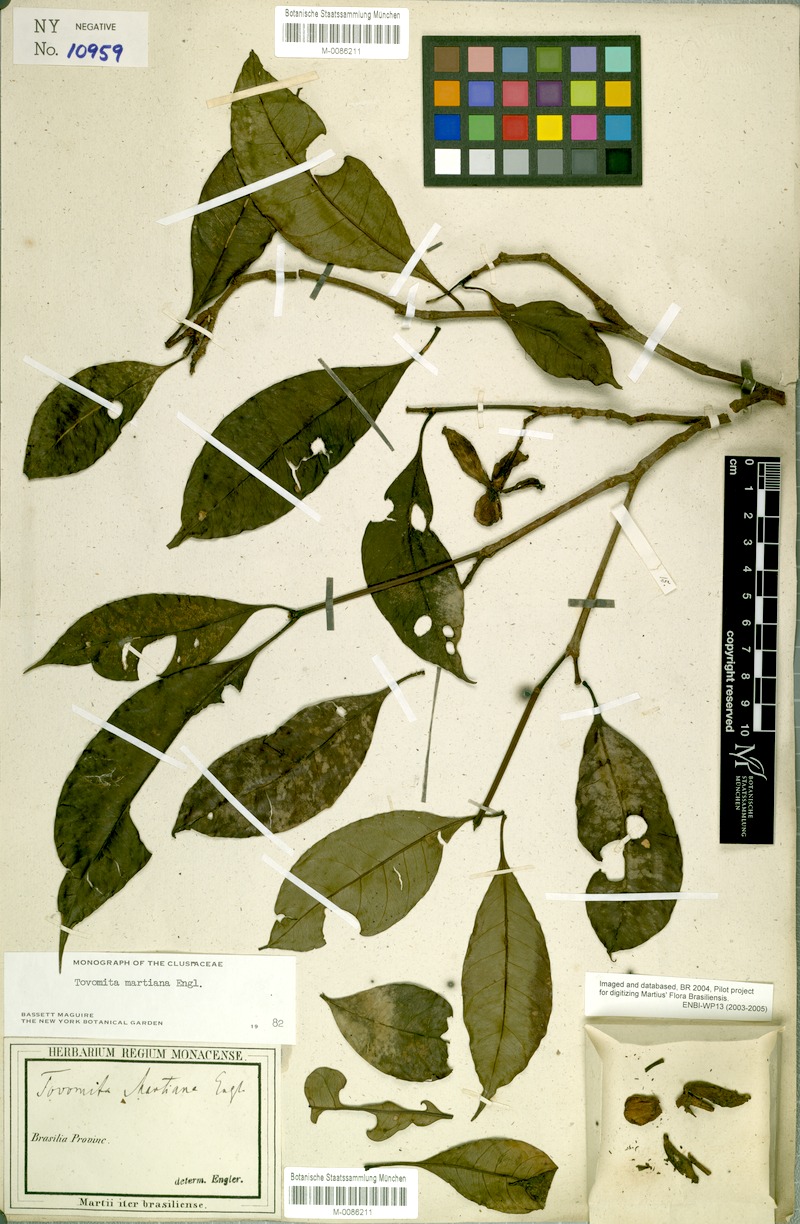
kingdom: Plantae
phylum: Tracheophyta
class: Magnoliopsida
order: Malpighiales
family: Clusiaceae
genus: Tovomita
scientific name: Tovomita martiana
